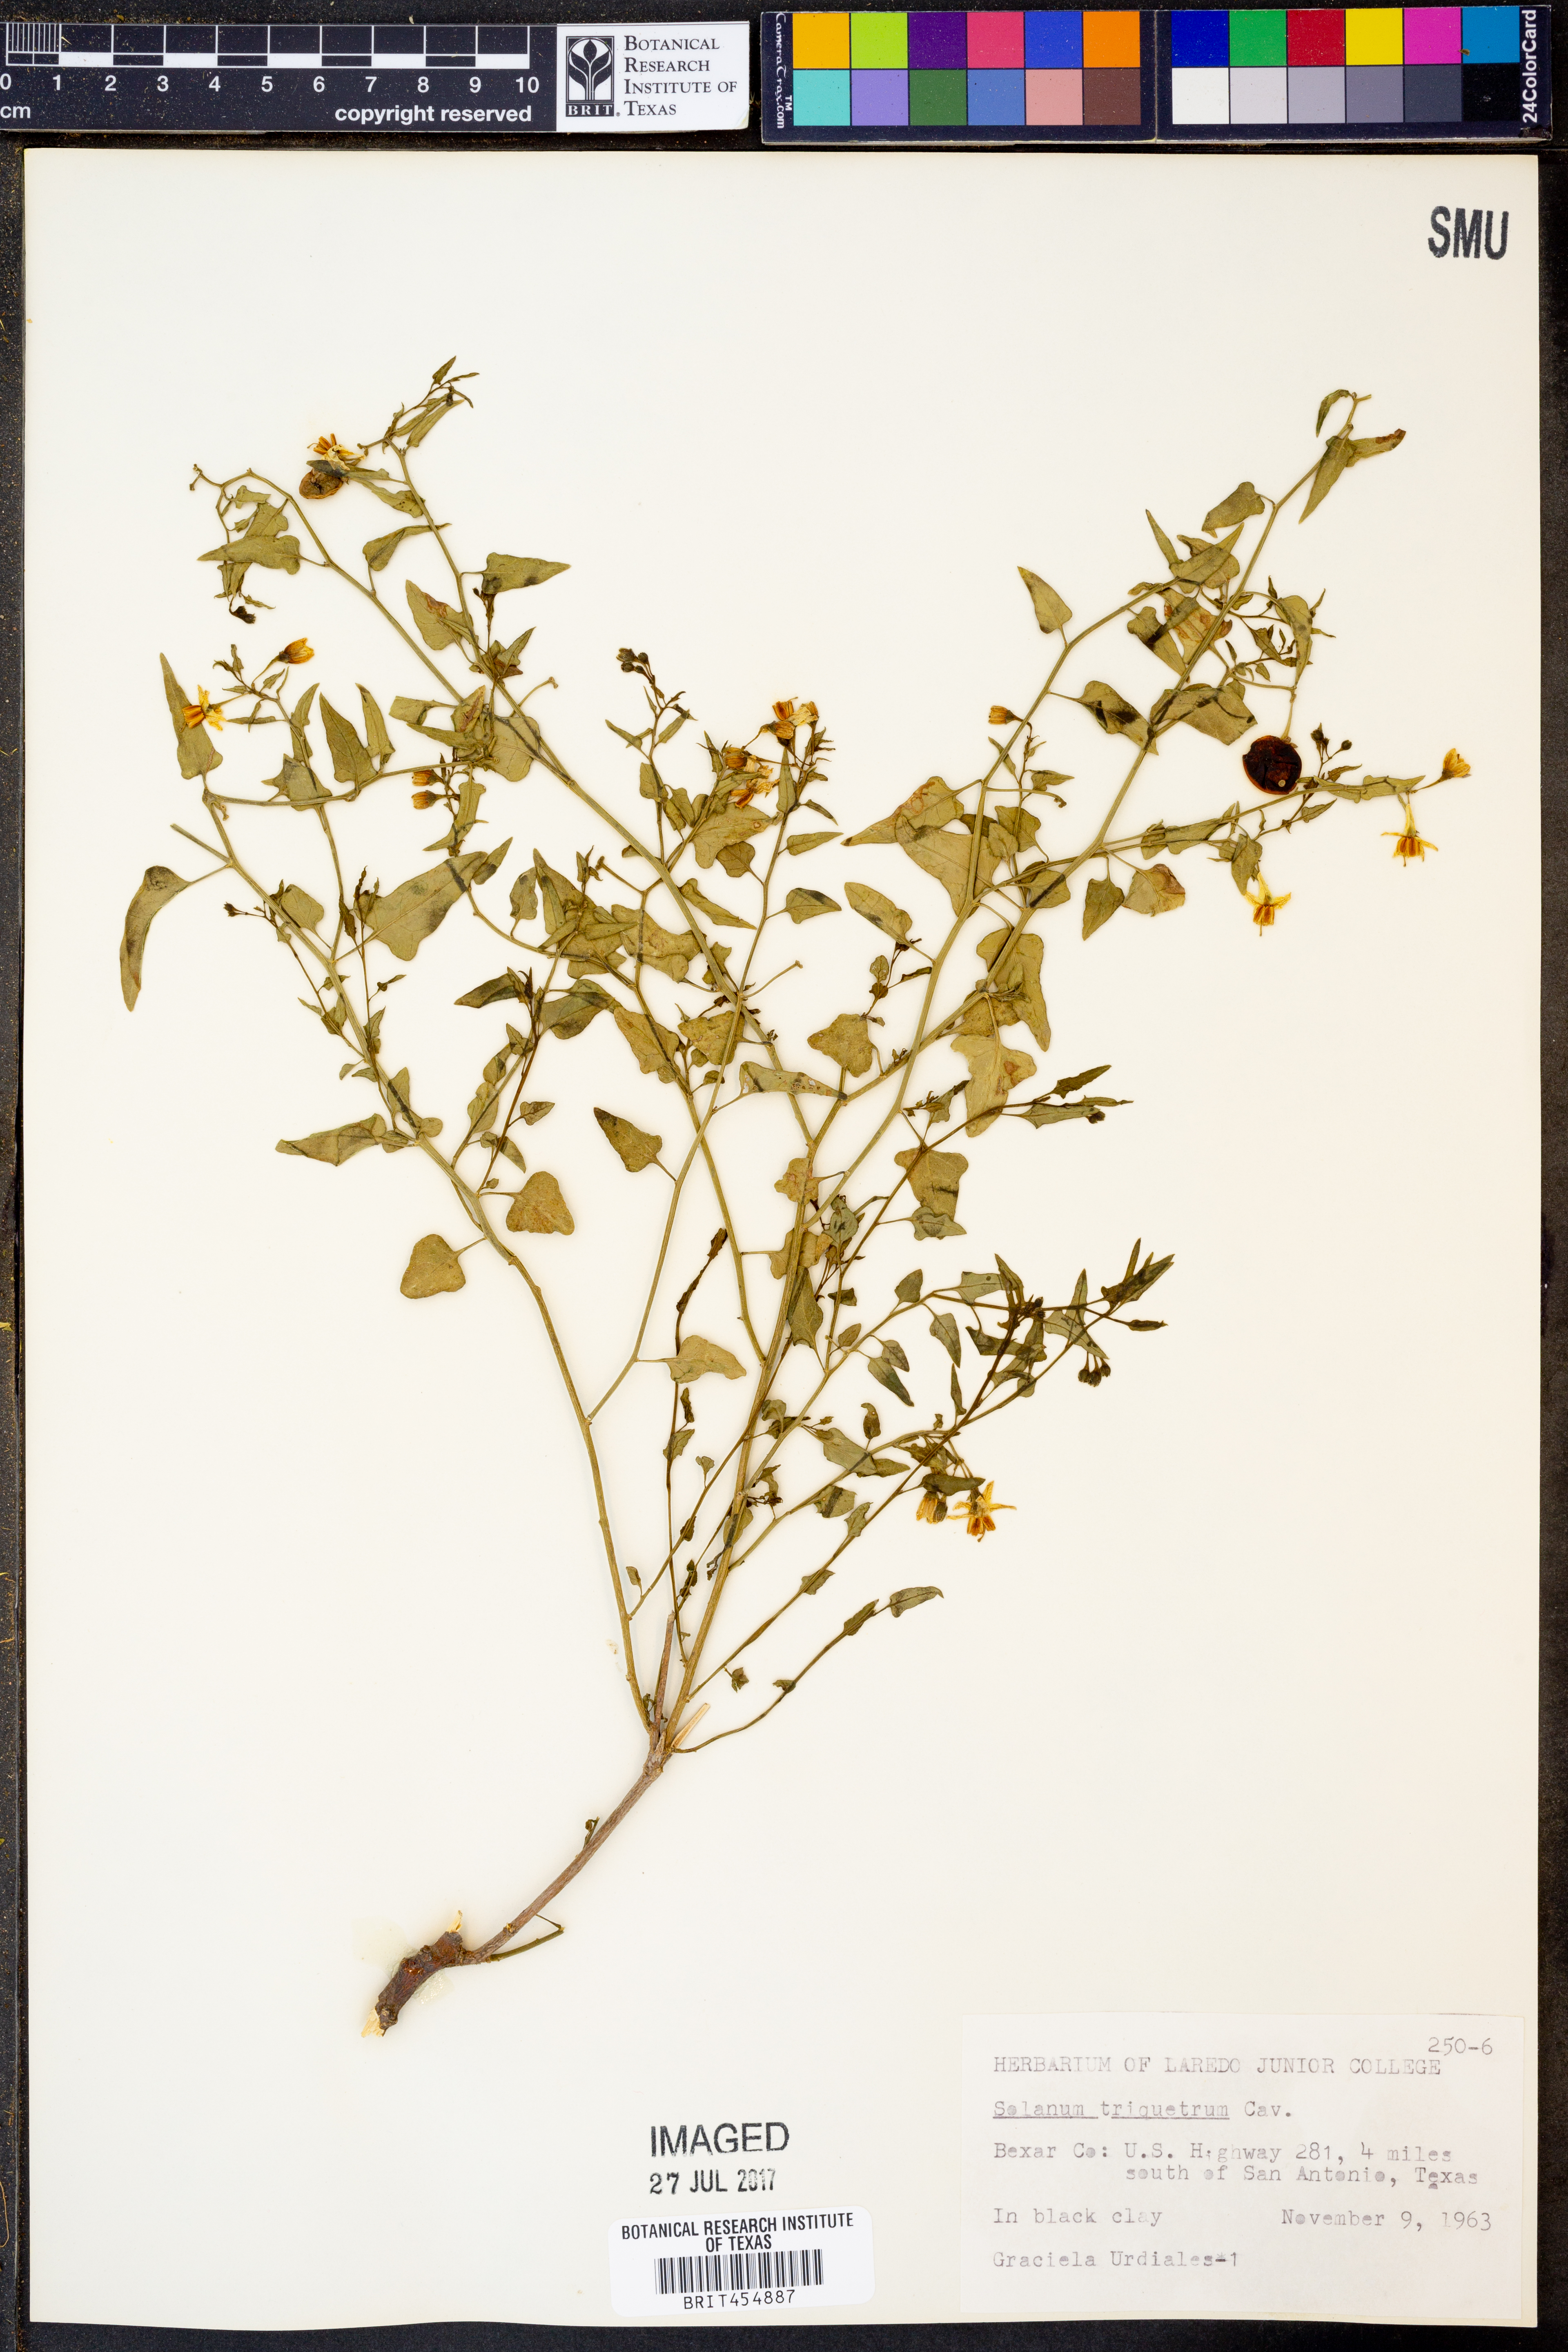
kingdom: Plantae
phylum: Tracheophyta
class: Magnoliopsida
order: Solanales
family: Solanaceae
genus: Solanum
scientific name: Solanum triquetrum
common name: Texas nightshade
